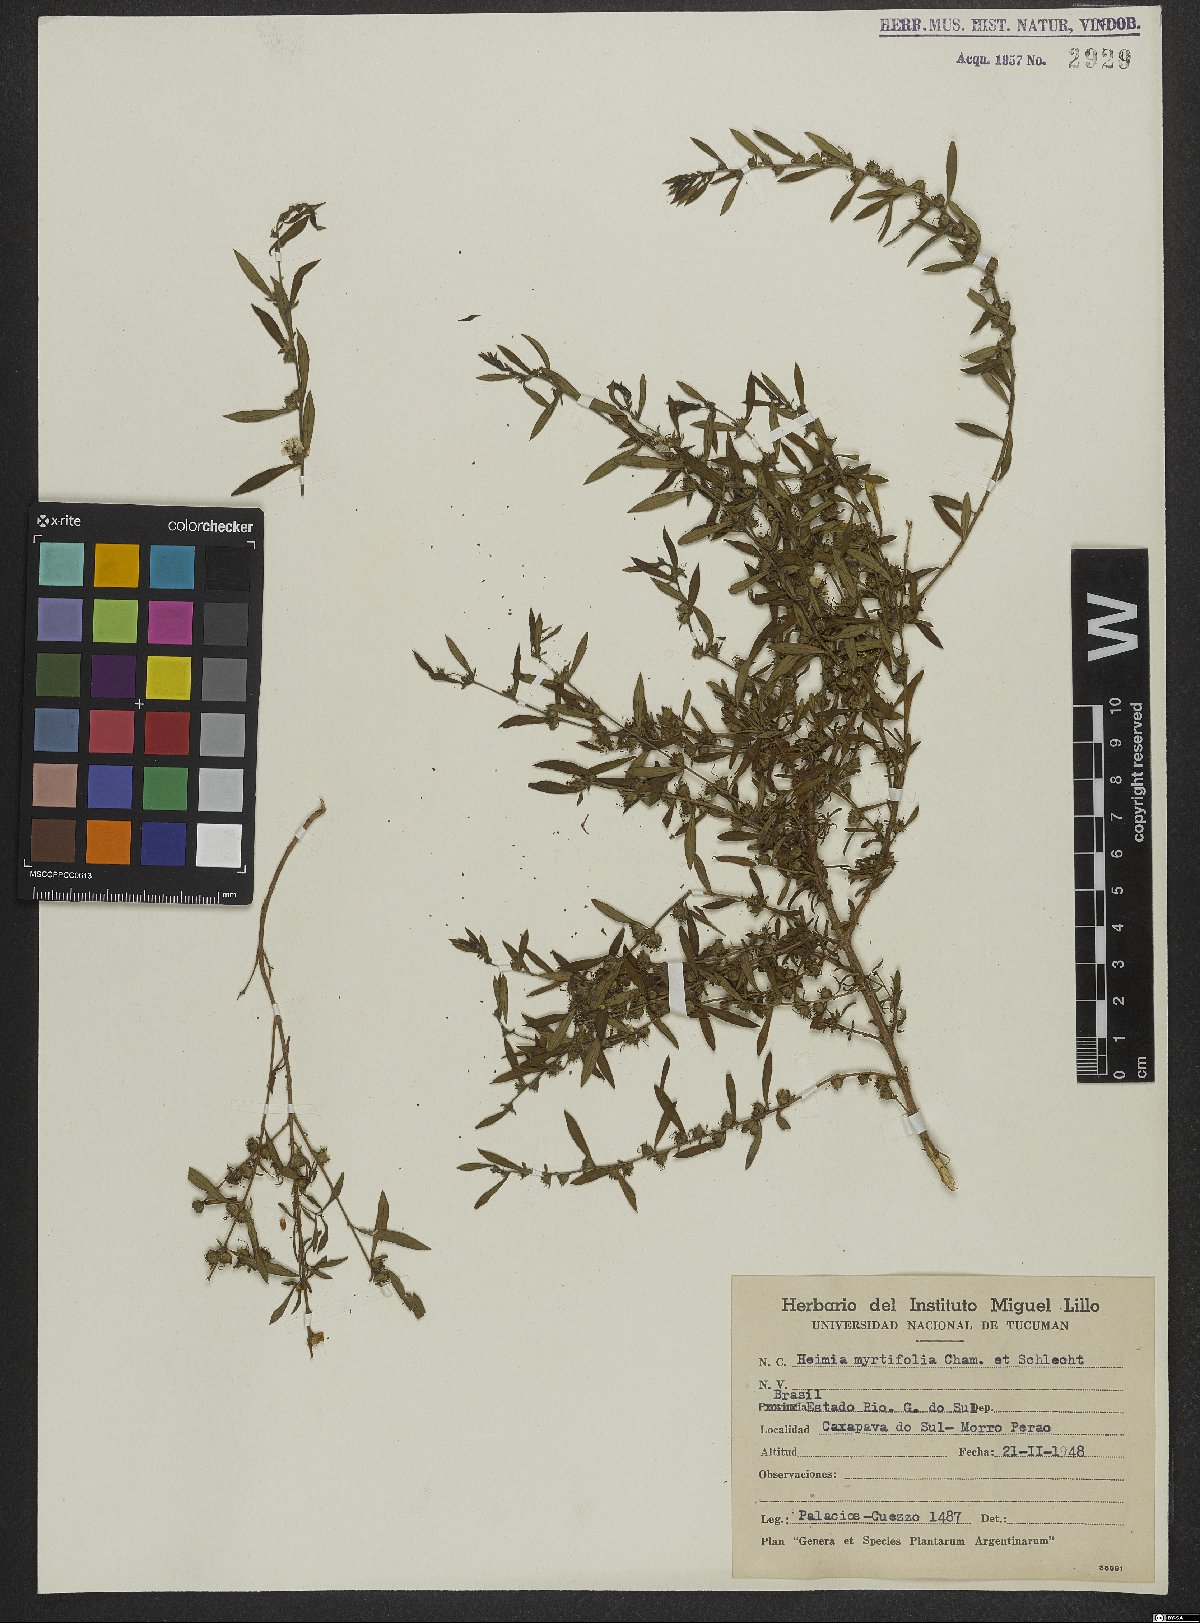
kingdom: Plantae
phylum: Tracheophyta
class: Magnoliopsida
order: Myrtales
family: Lythraceae
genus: Heimia
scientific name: Heimia apetala
